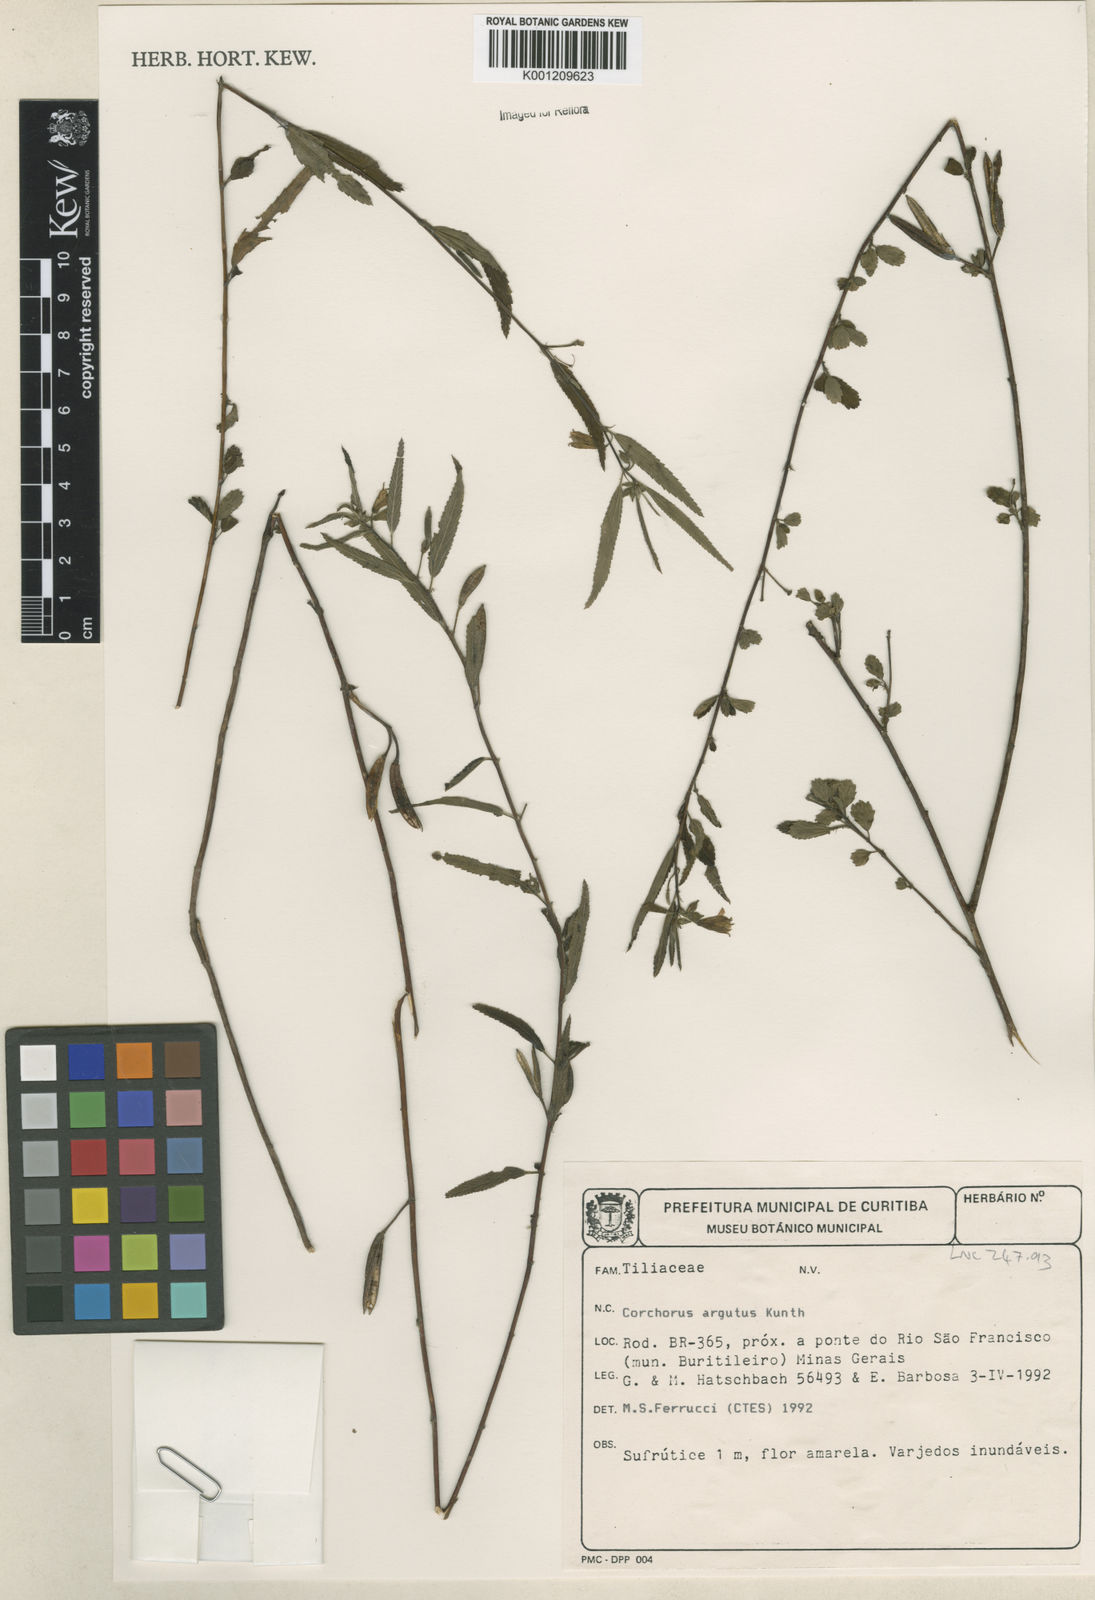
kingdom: Plantae
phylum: Tracheophyta
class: Magnoliopsida
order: Malvales
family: Malvaceae
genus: Corchorus
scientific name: Corchorus argutus
